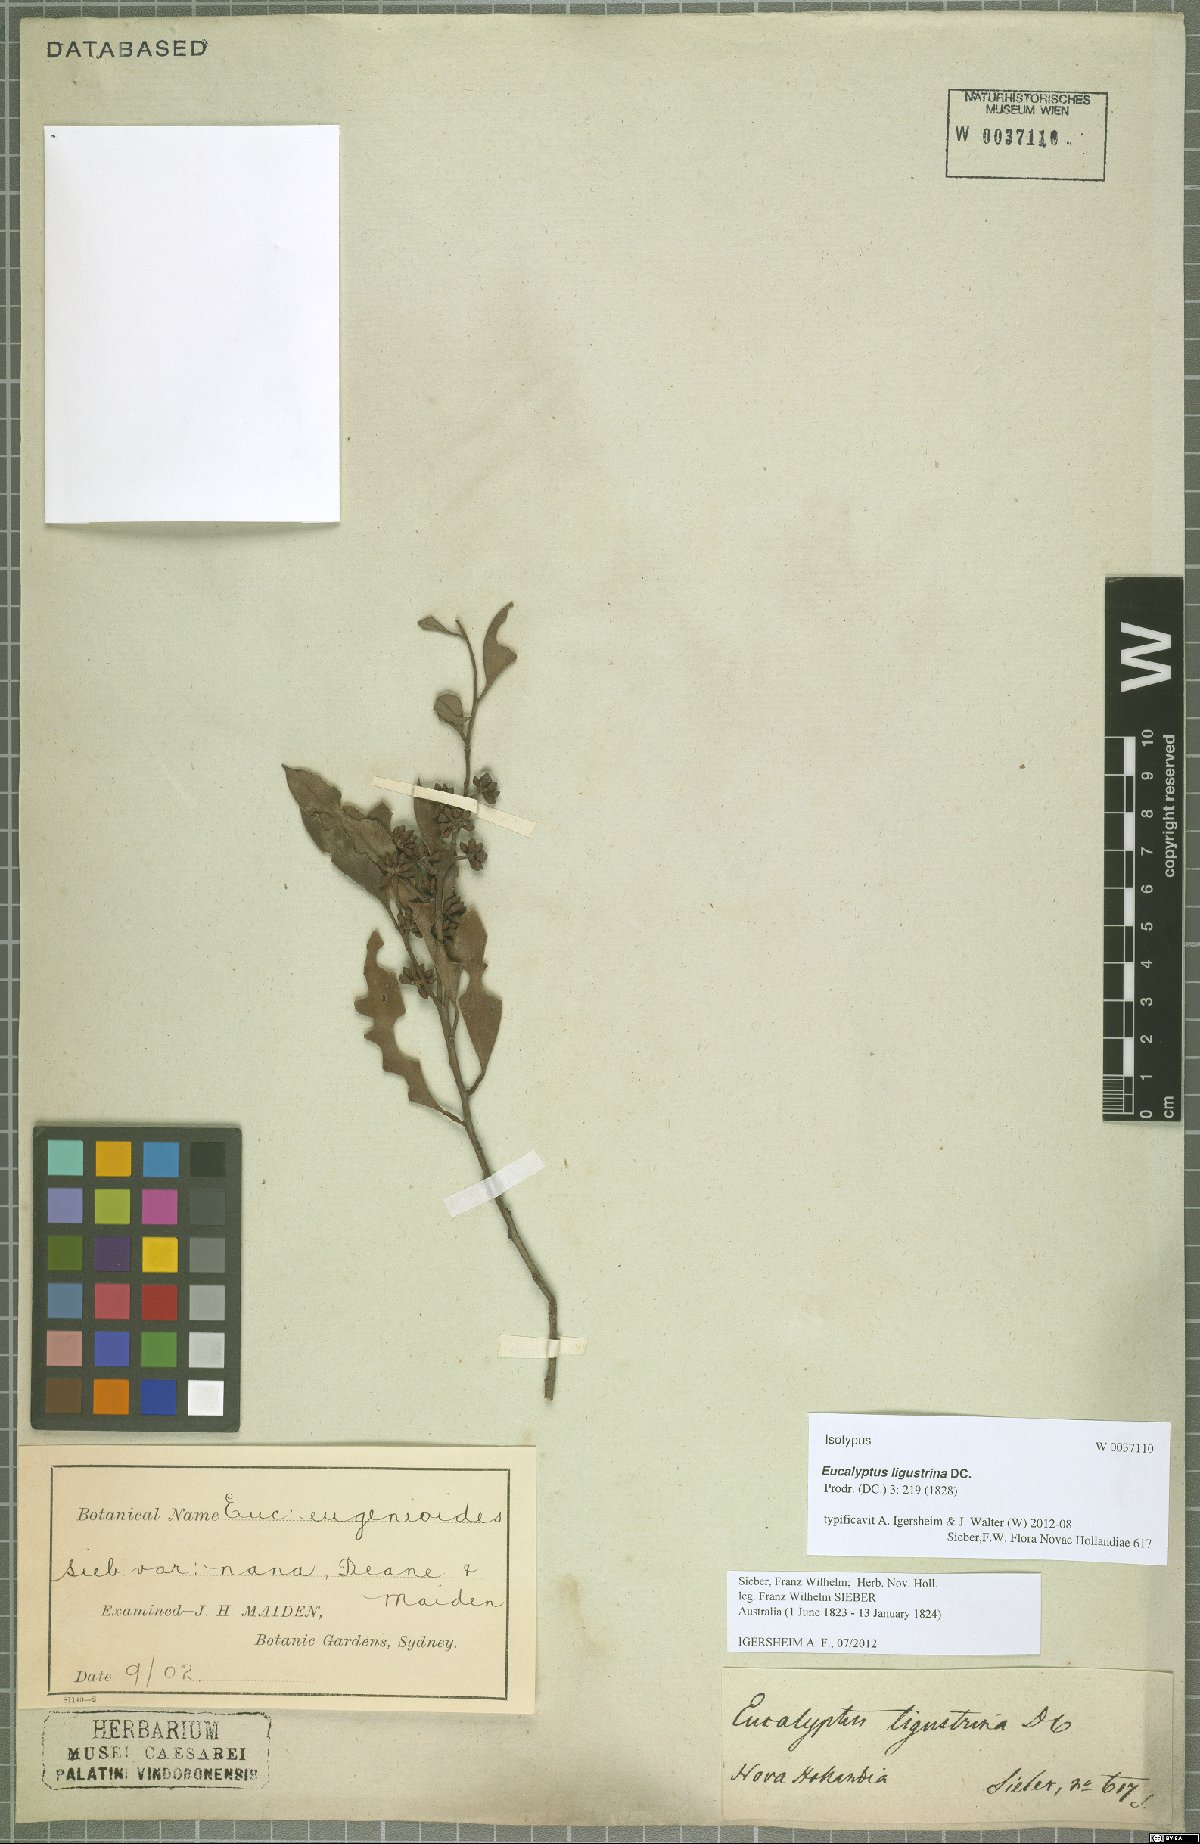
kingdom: Plantae
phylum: Tracheophyta
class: Magnoliopsida
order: Myrtales
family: Myrtaceae
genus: Eucalyptus
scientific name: Eucalyptus ligustrina
